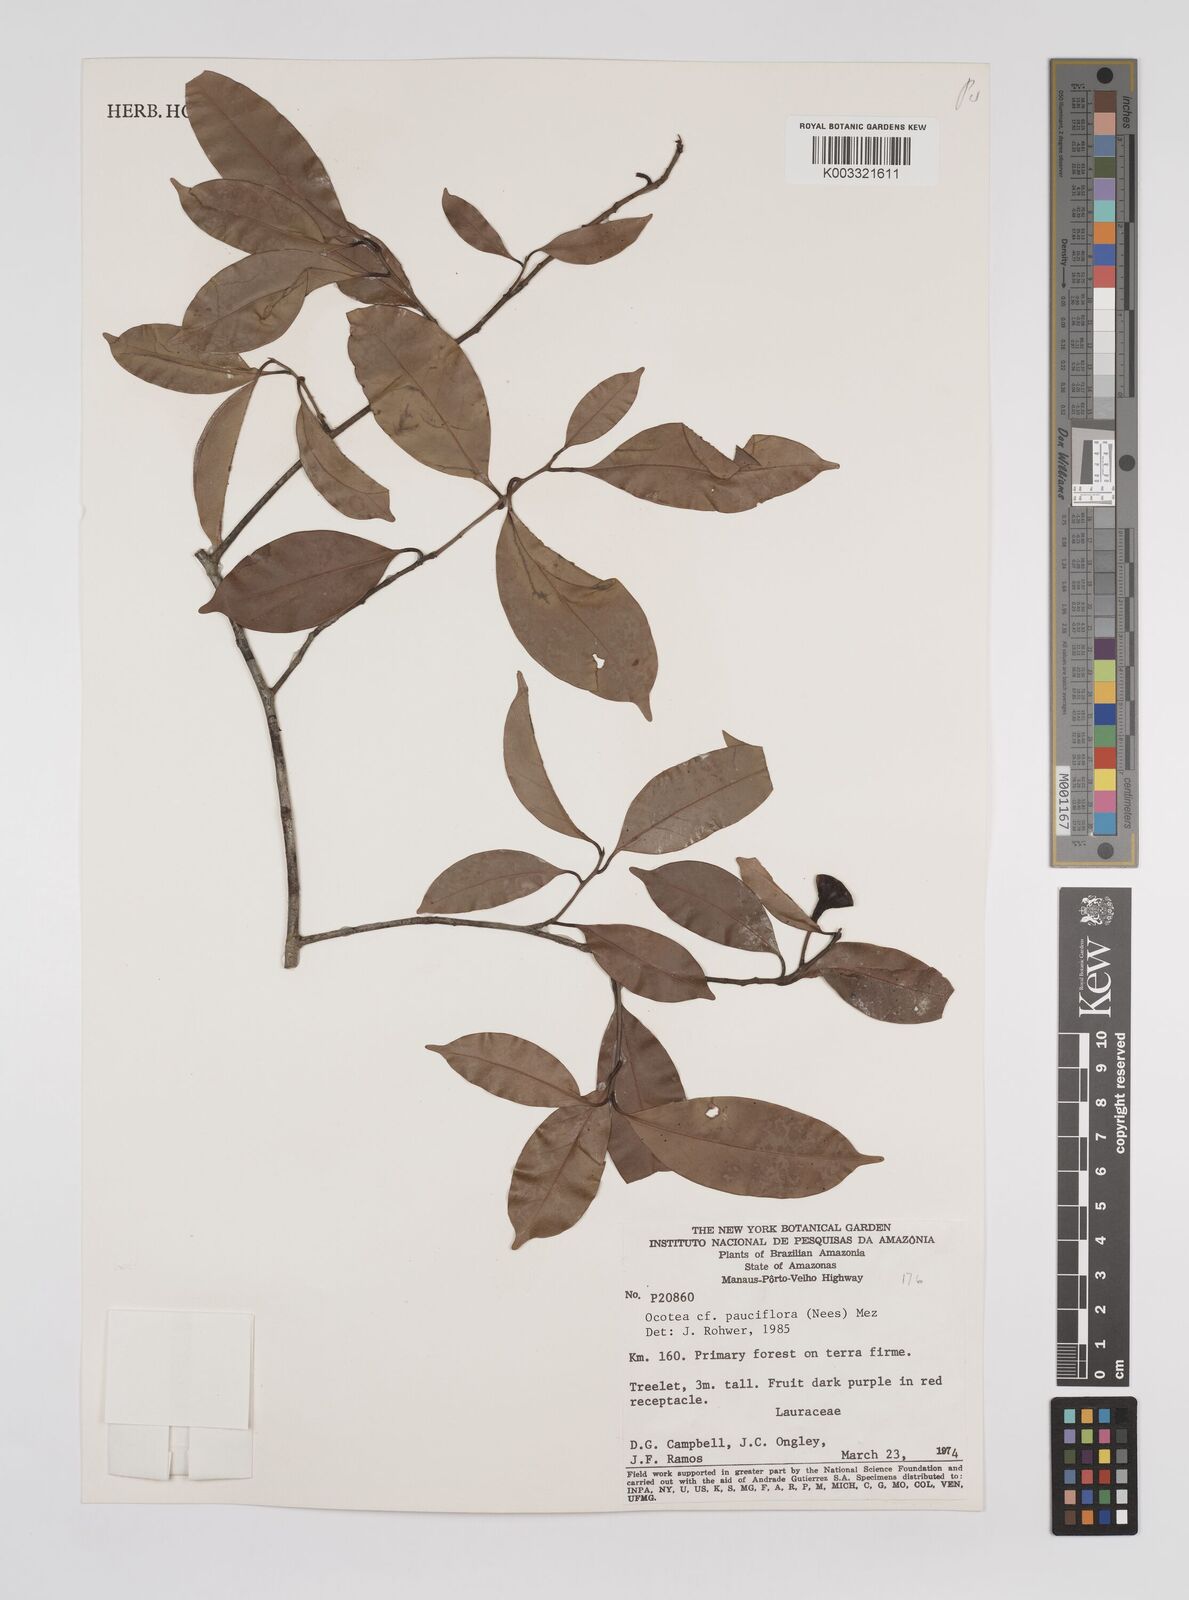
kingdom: Plantae
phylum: Tracheophyta
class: Magnoliopsida
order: Laurales
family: Lauraceae
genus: Ocotea
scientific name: Ocotea pauciflora
